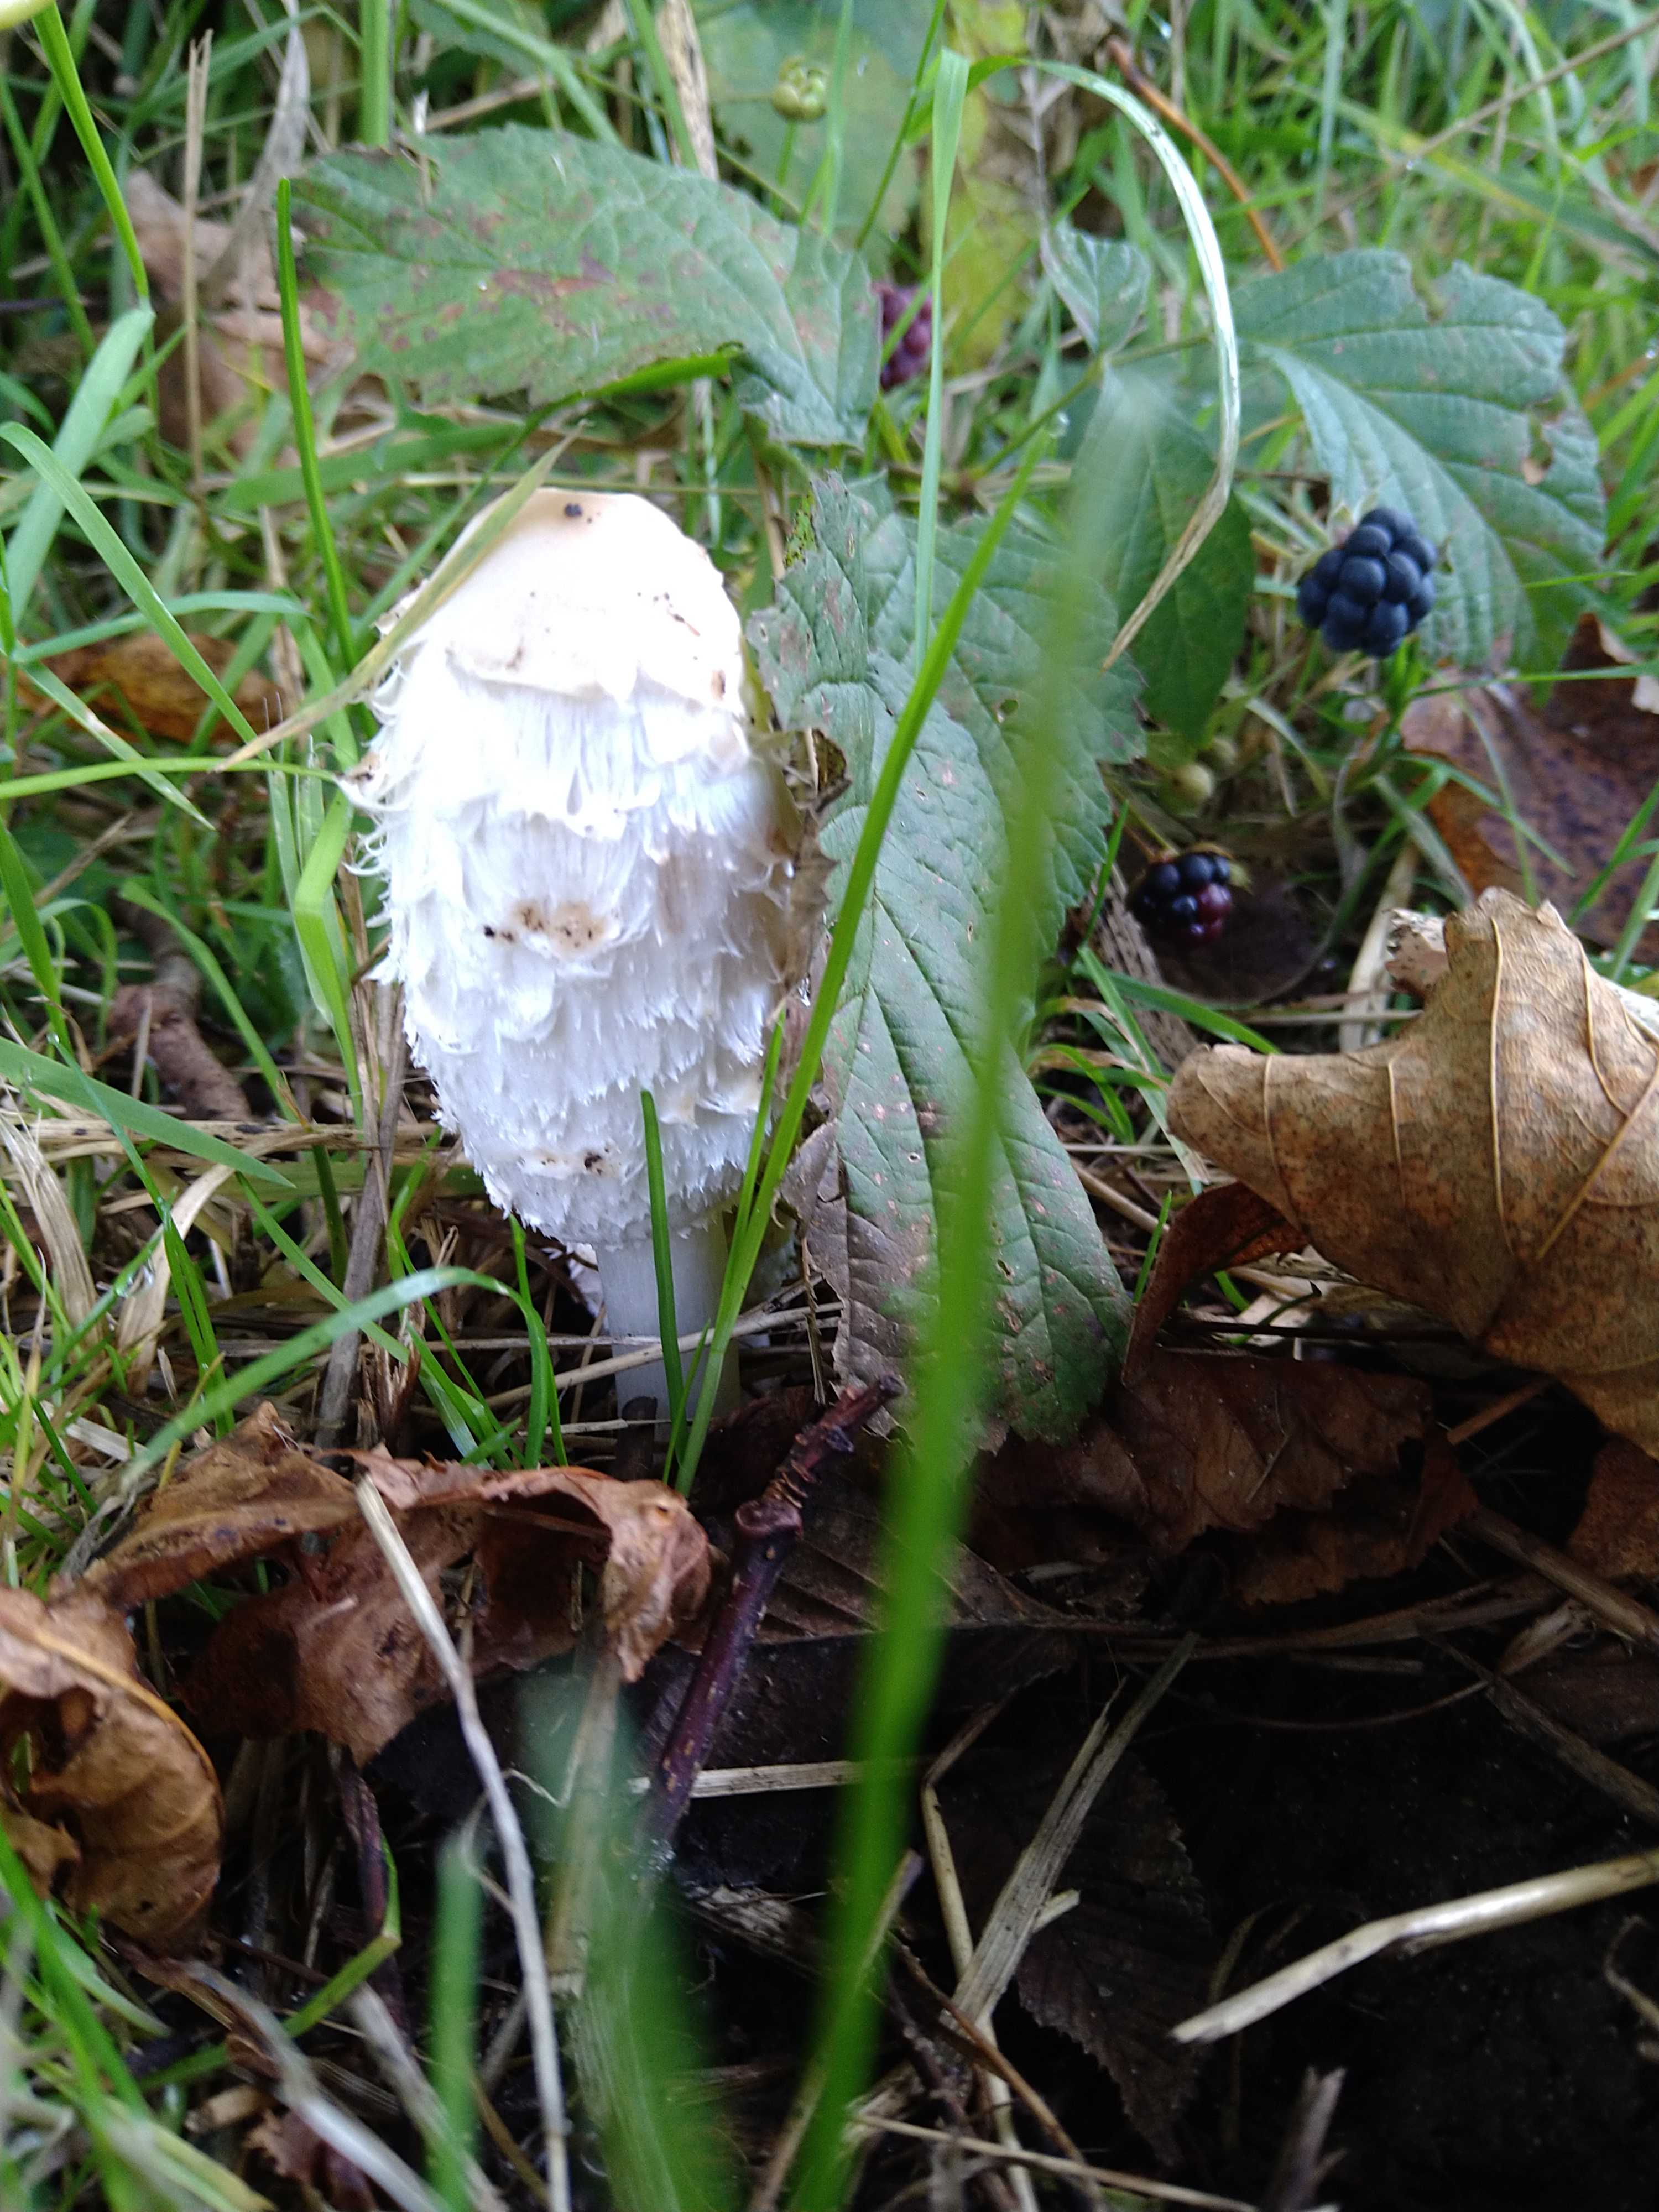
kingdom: Fungi
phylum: Basidiomycota
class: Agaricomycetes
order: Agaricales
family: Agaricaceae
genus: Coprinus
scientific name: Coprinus comatus
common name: stor parykhat
